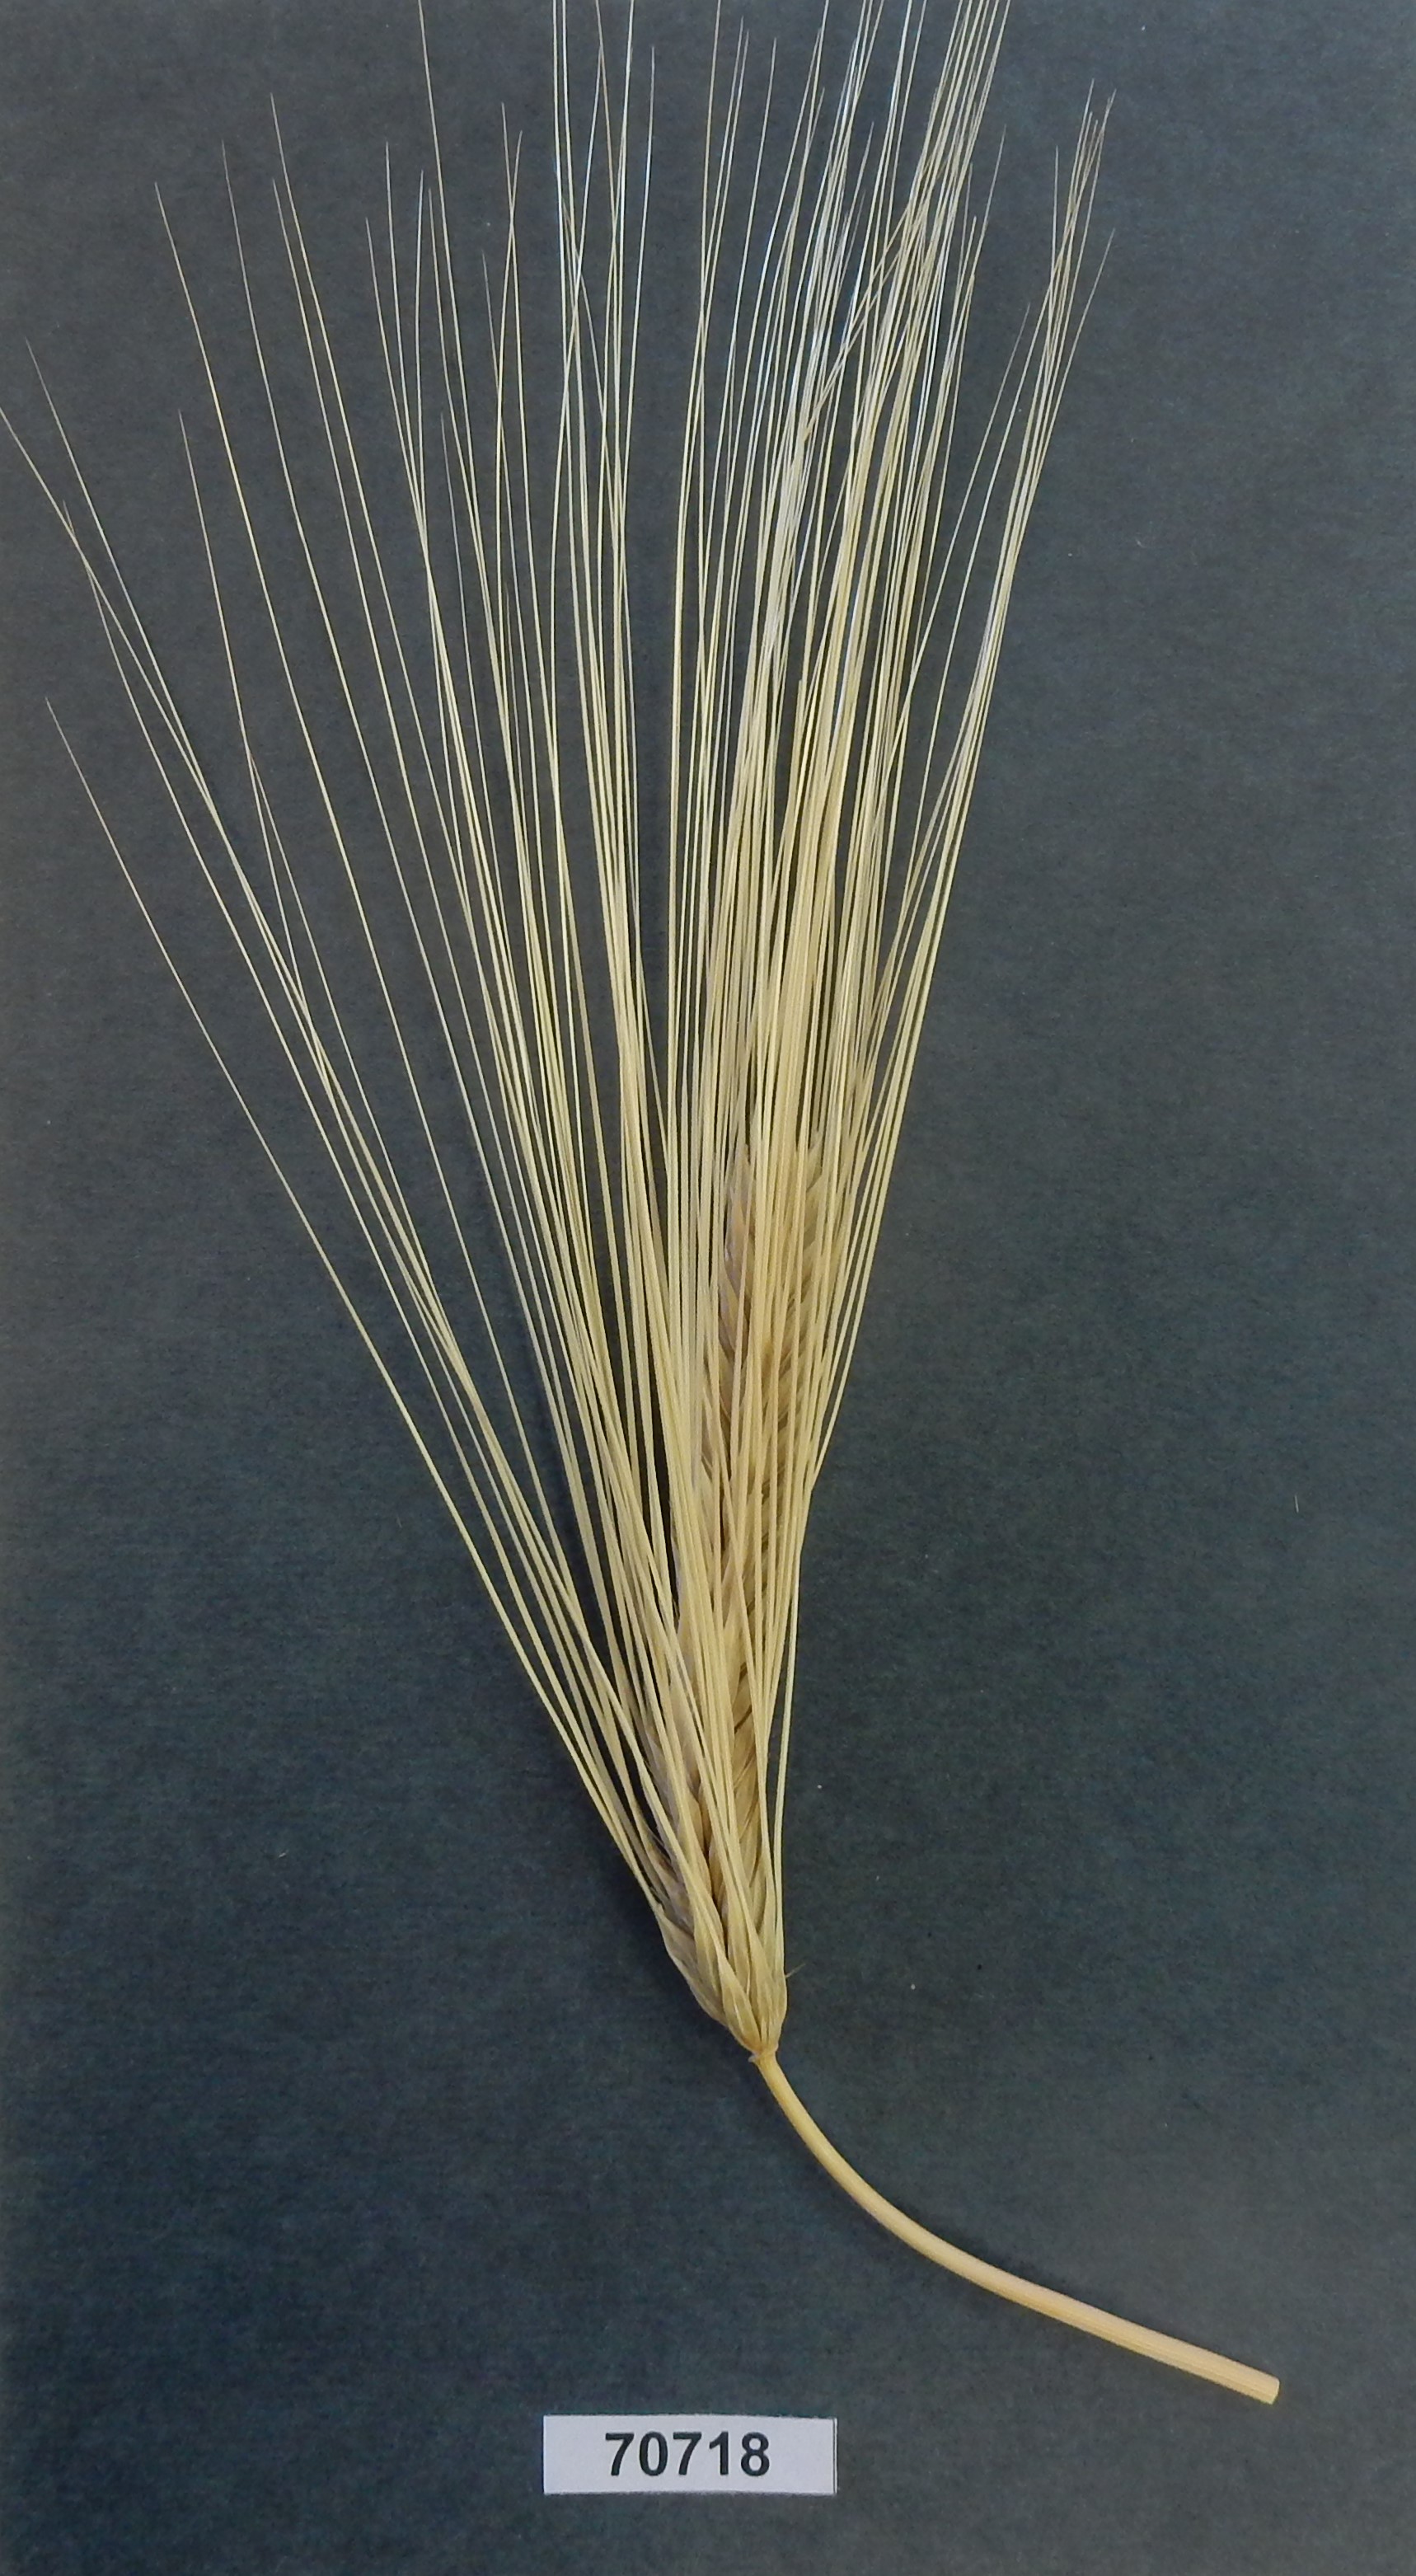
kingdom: Plantae
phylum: Tracheophyta
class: Liliopsida
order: Poales
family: Poaceae
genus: Hordeum
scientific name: Hordeum
